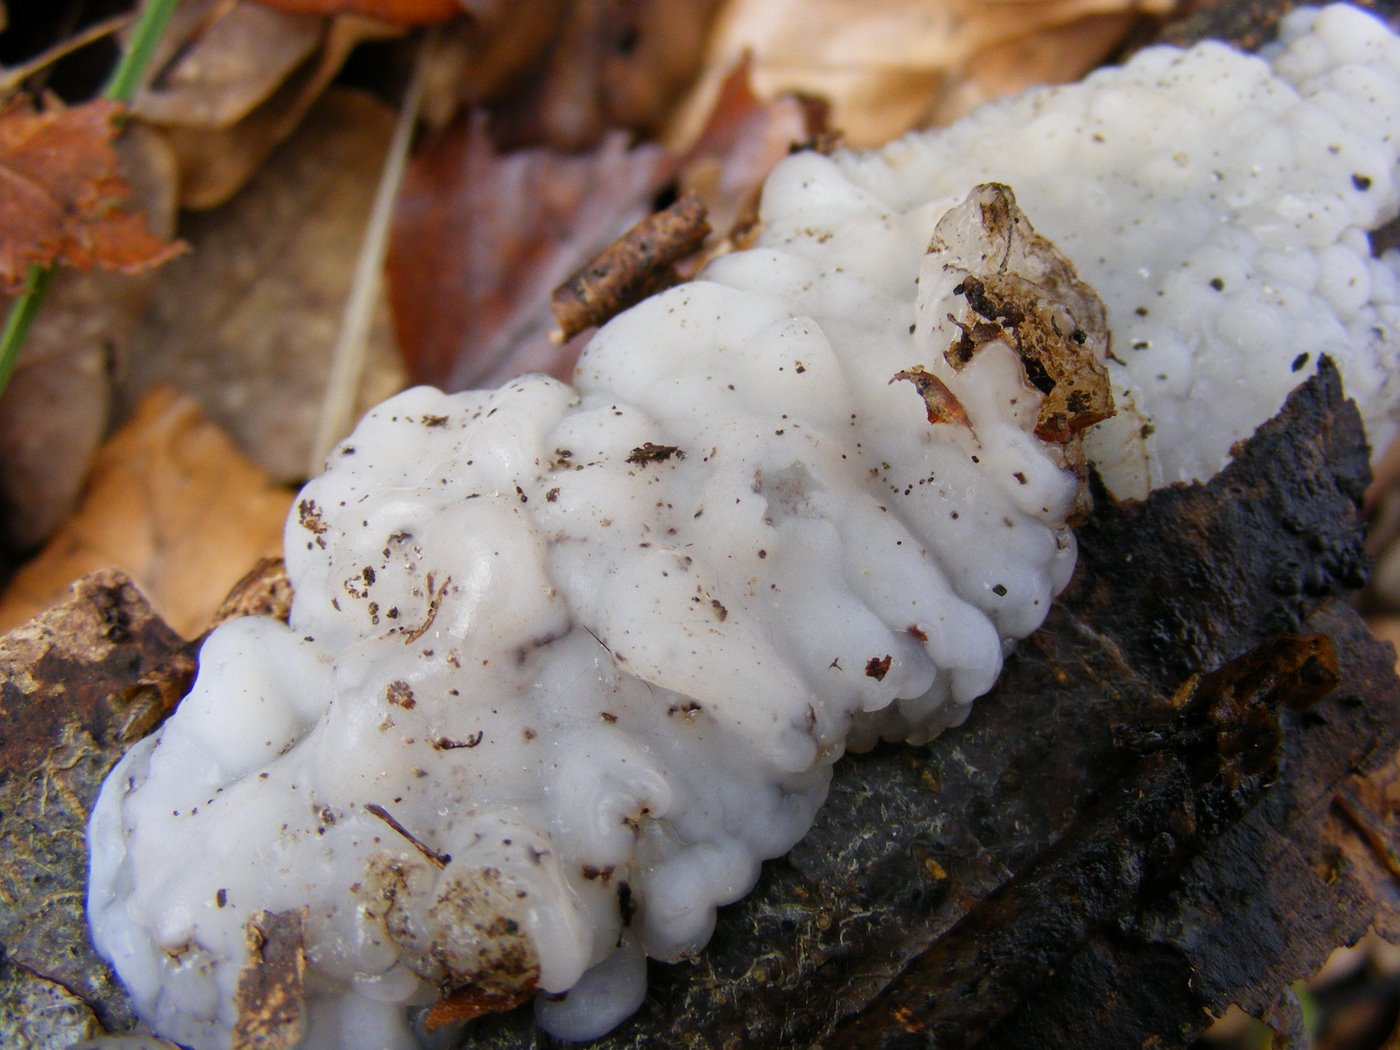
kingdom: Fungi
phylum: Basidiomycota
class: Agaricomycetes
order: Auriculariales
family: Auriculariaceae
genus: Exidia
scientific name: Exidia thuretiana
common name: hvidlig bævretop
